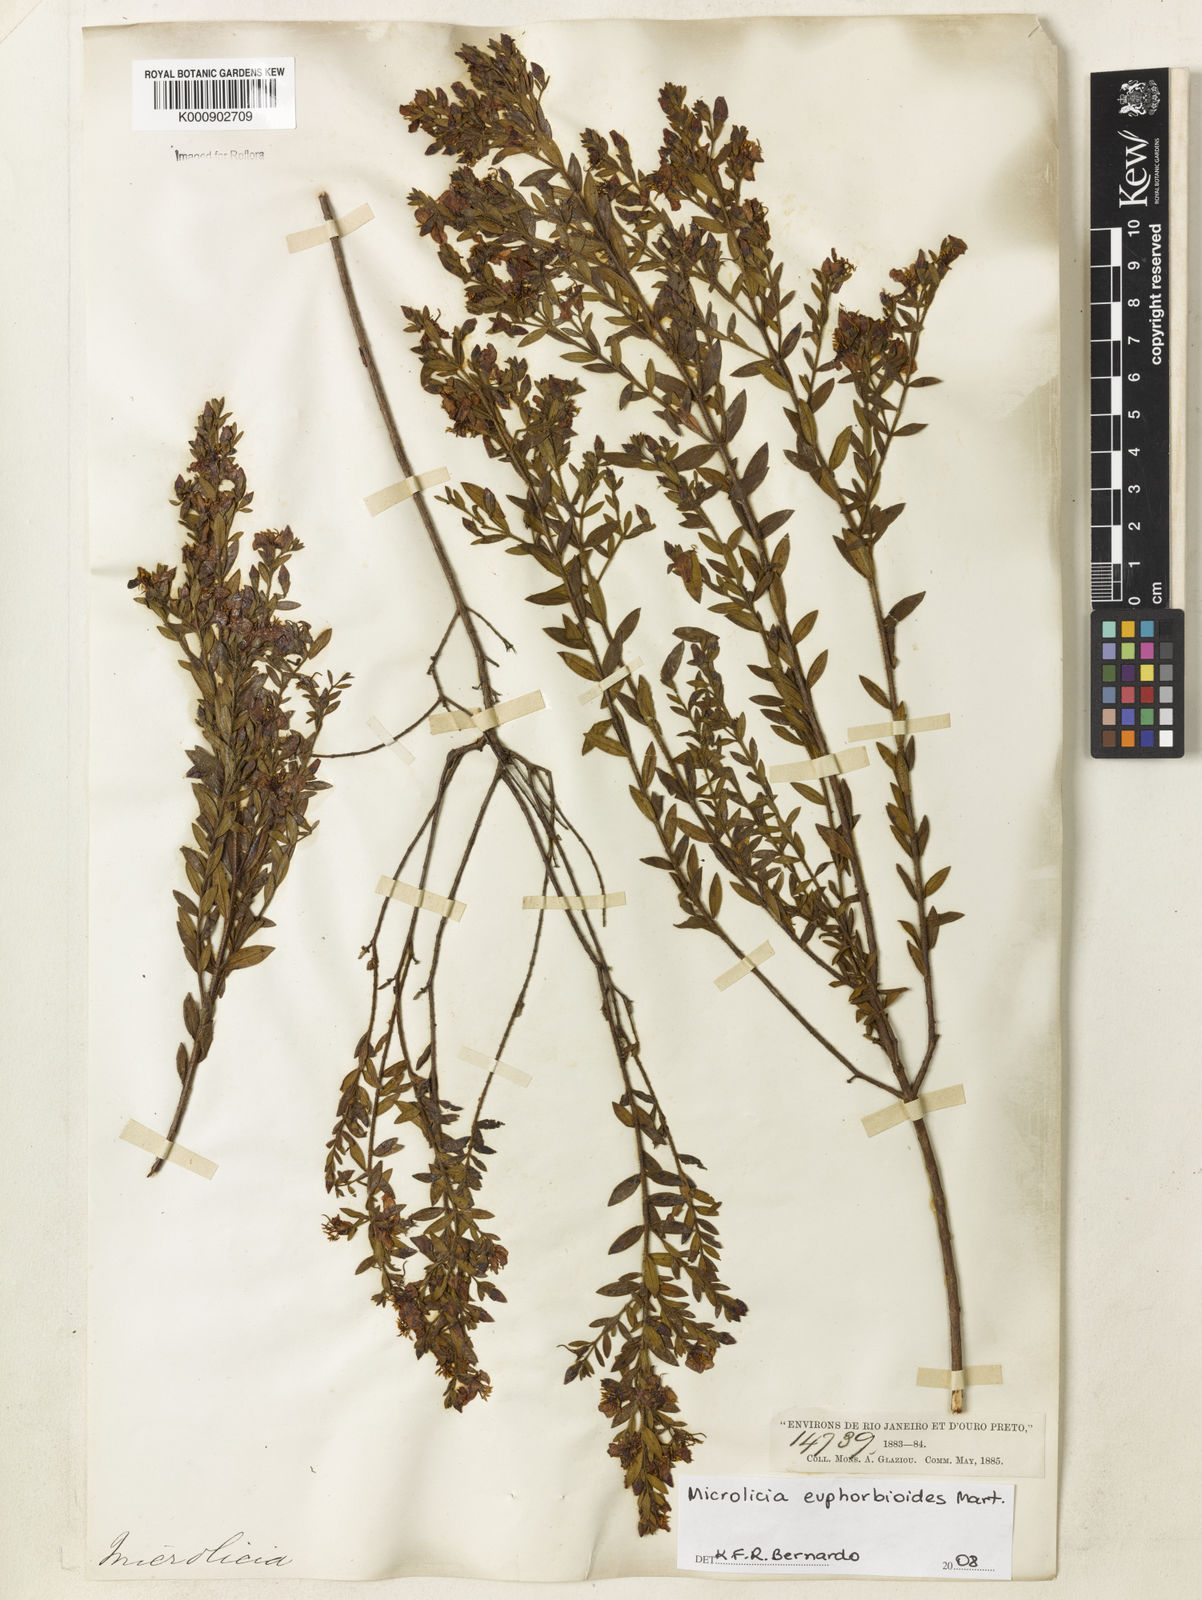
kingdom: Plantae
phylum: Tracheophyta
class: Magnoliopsida
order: Myrtales
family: Melastomataceae
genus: Microlicia
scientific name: Microlicia euphorbioides
